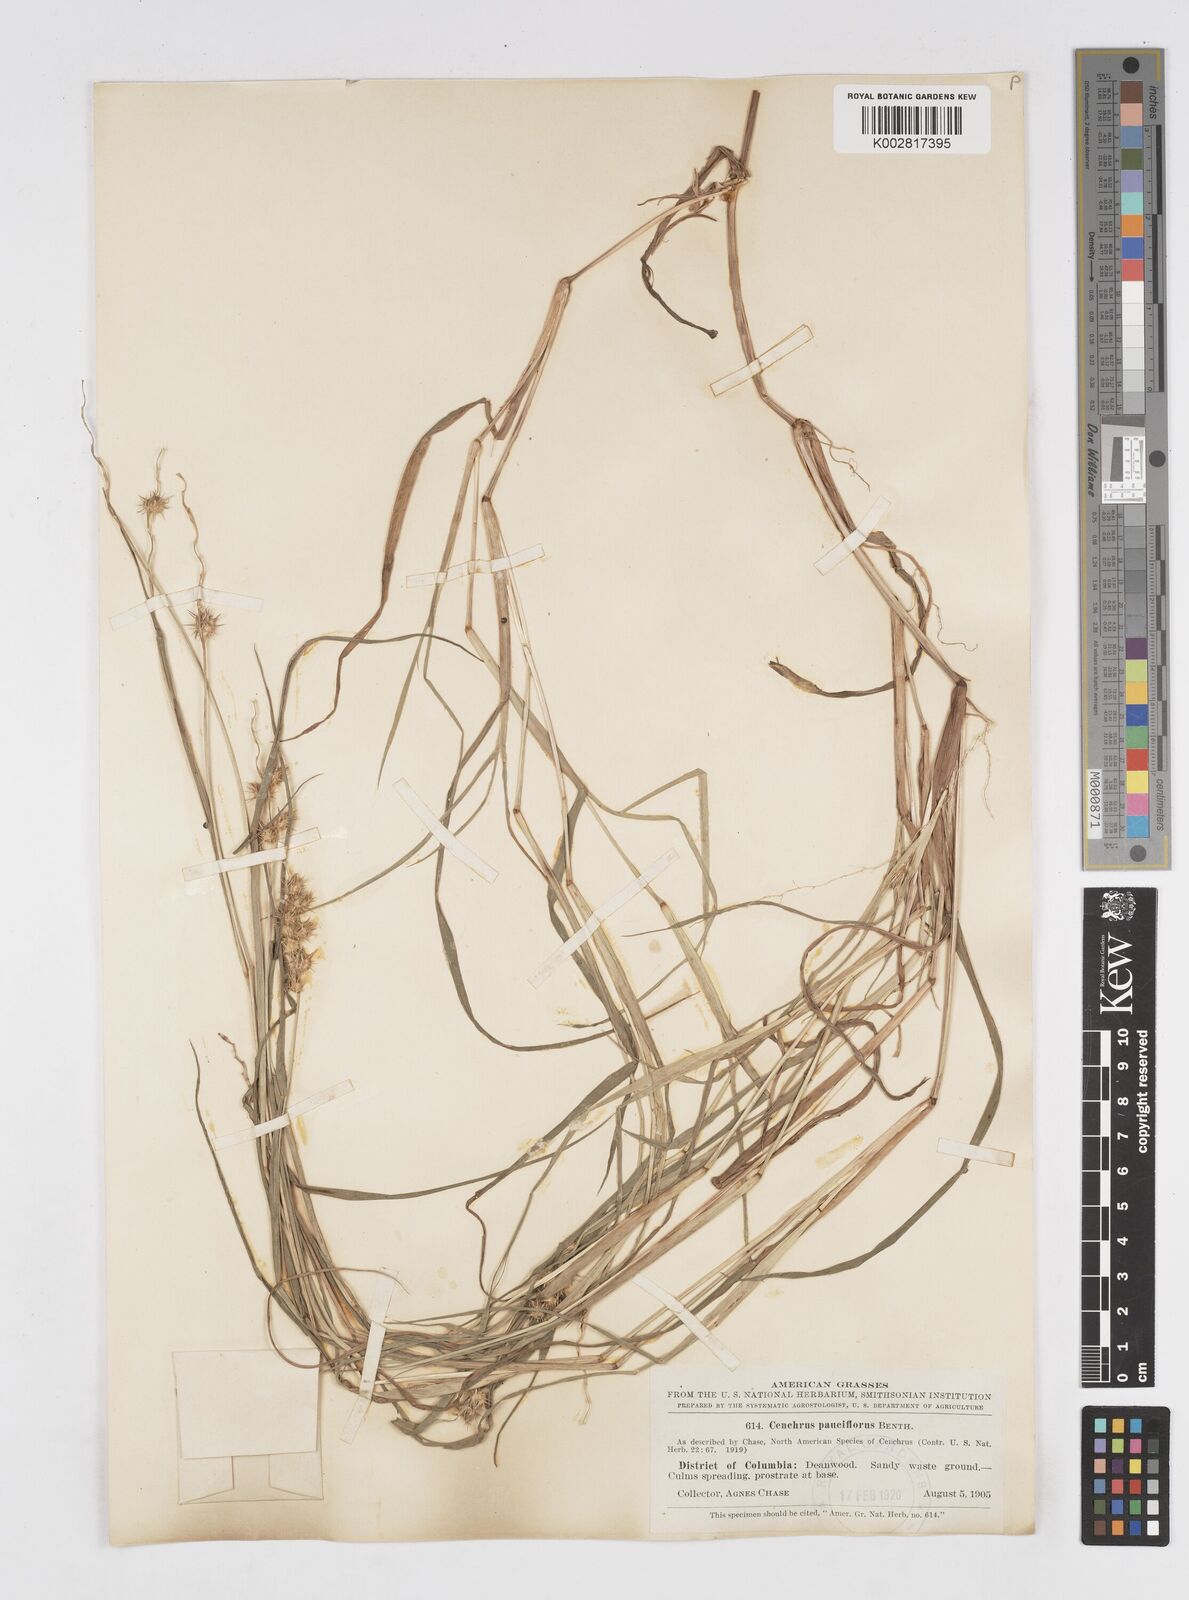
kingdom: Plantae
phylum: Tracheophyta
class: Liliopsida
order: Poales
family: Poaceae
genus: Cenchrus
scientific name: Cenchrus longispinus
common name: Mat sandbur
